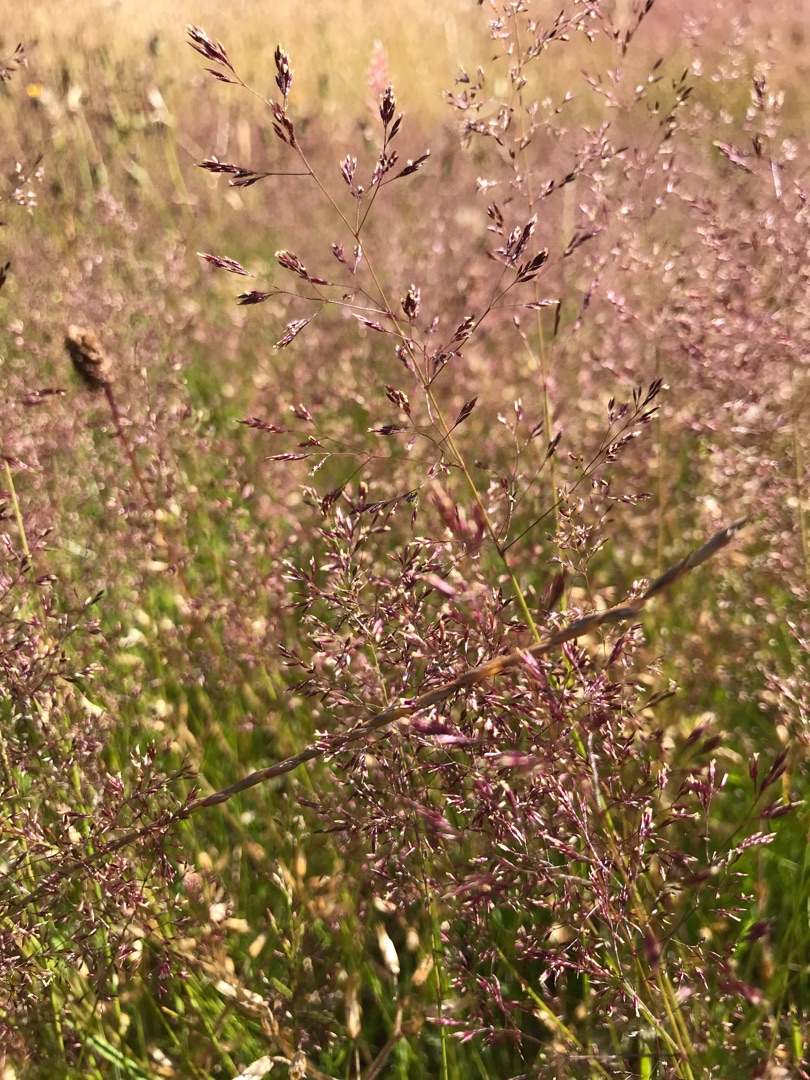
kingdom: Plantae
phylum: Tracheophyta
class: Liliopsida
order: Poales
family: Poaceae
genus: Agrostis
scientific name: Agrostis capillaris
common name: Almindelig hvene
